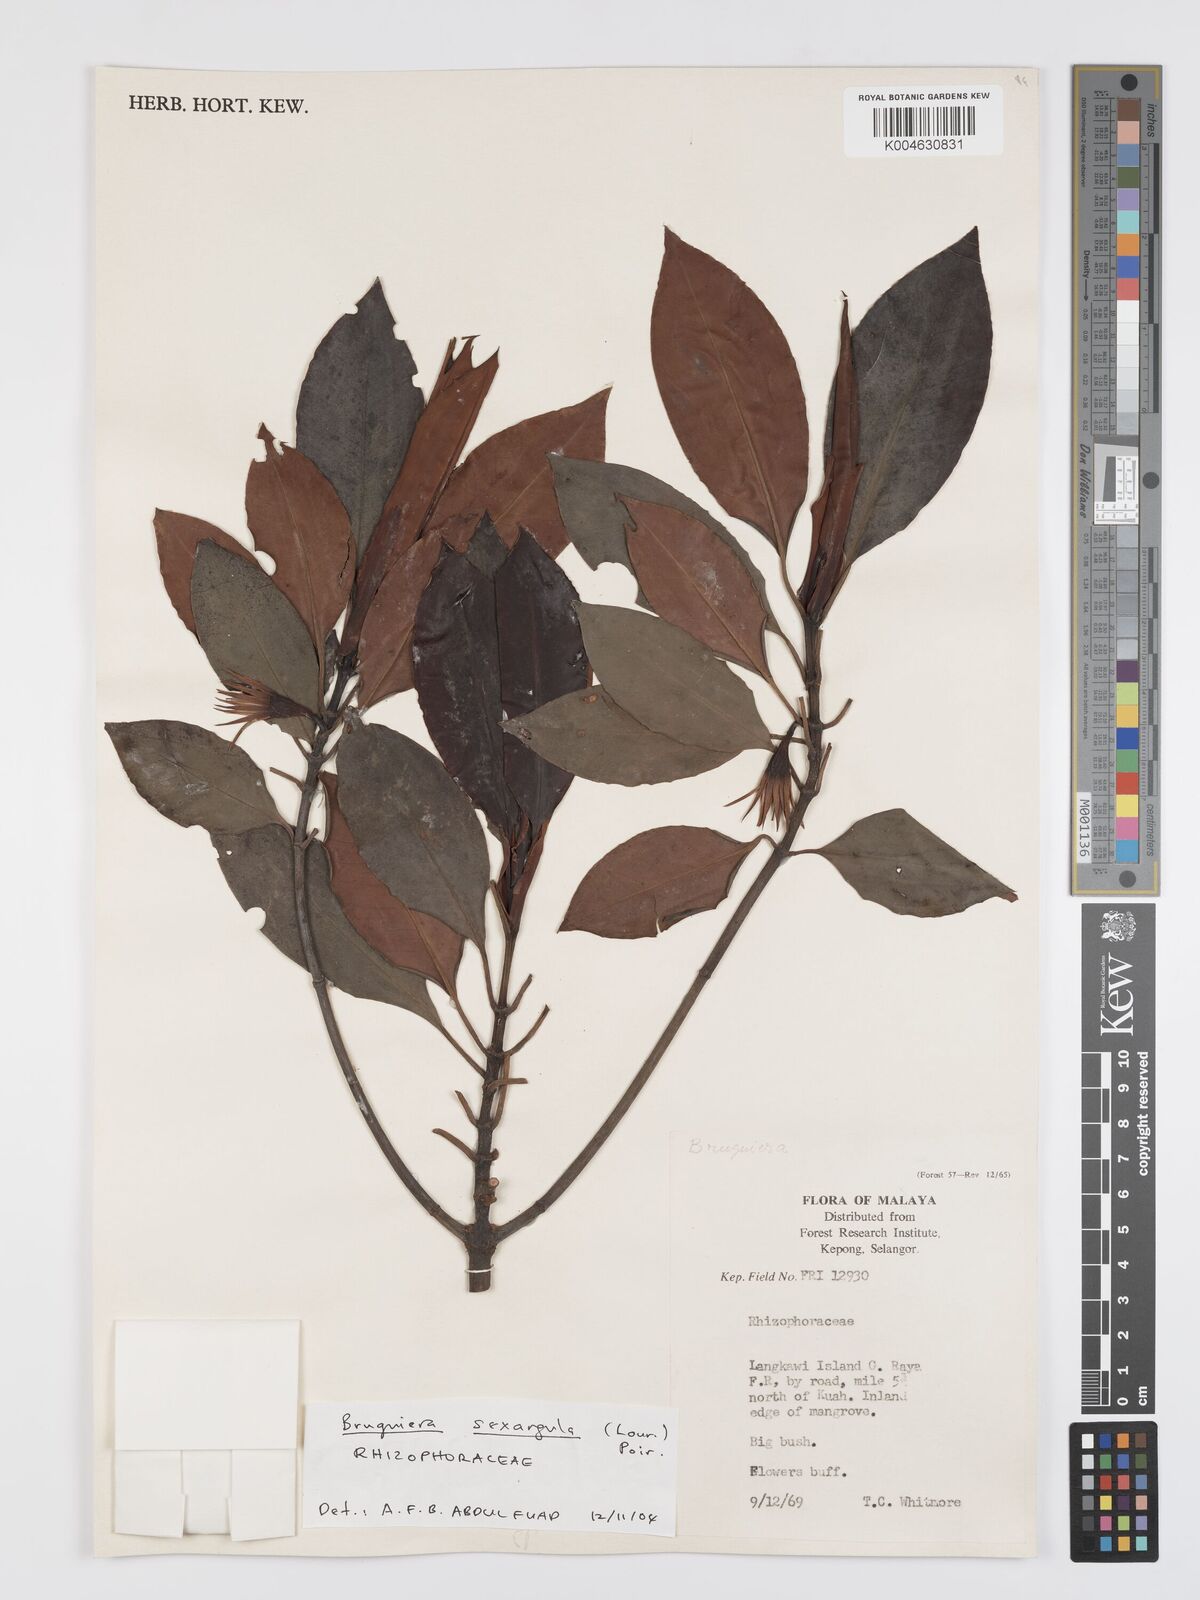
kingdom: Plantae
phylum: Tracheophyta
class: Magnoliopsida
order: Malpighiales
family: Rhizophoraceae
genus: Bruguiera
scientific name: Bruguiera
